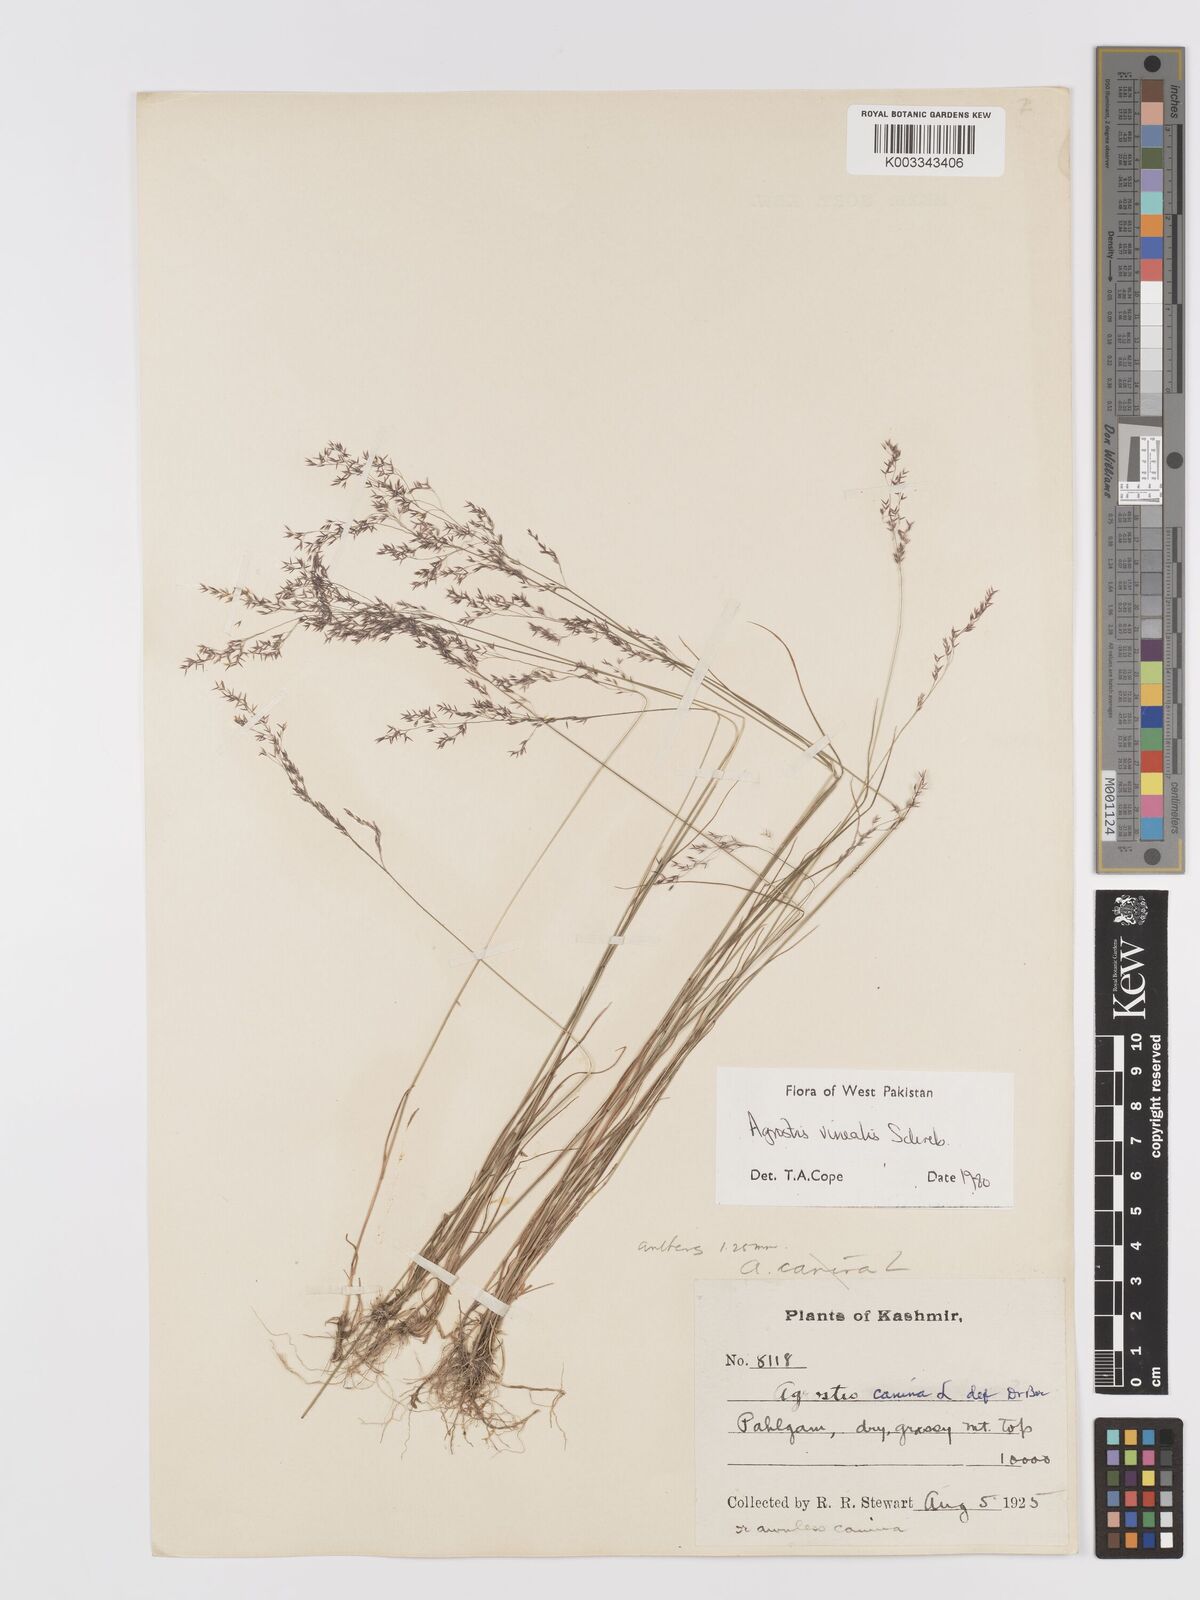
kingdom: Plantae
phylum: Tracheophyta
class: Liliopsida
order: Poales
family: Poaceae
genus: Agrostis
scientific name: Agrostis vinealis
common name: Brown bent
